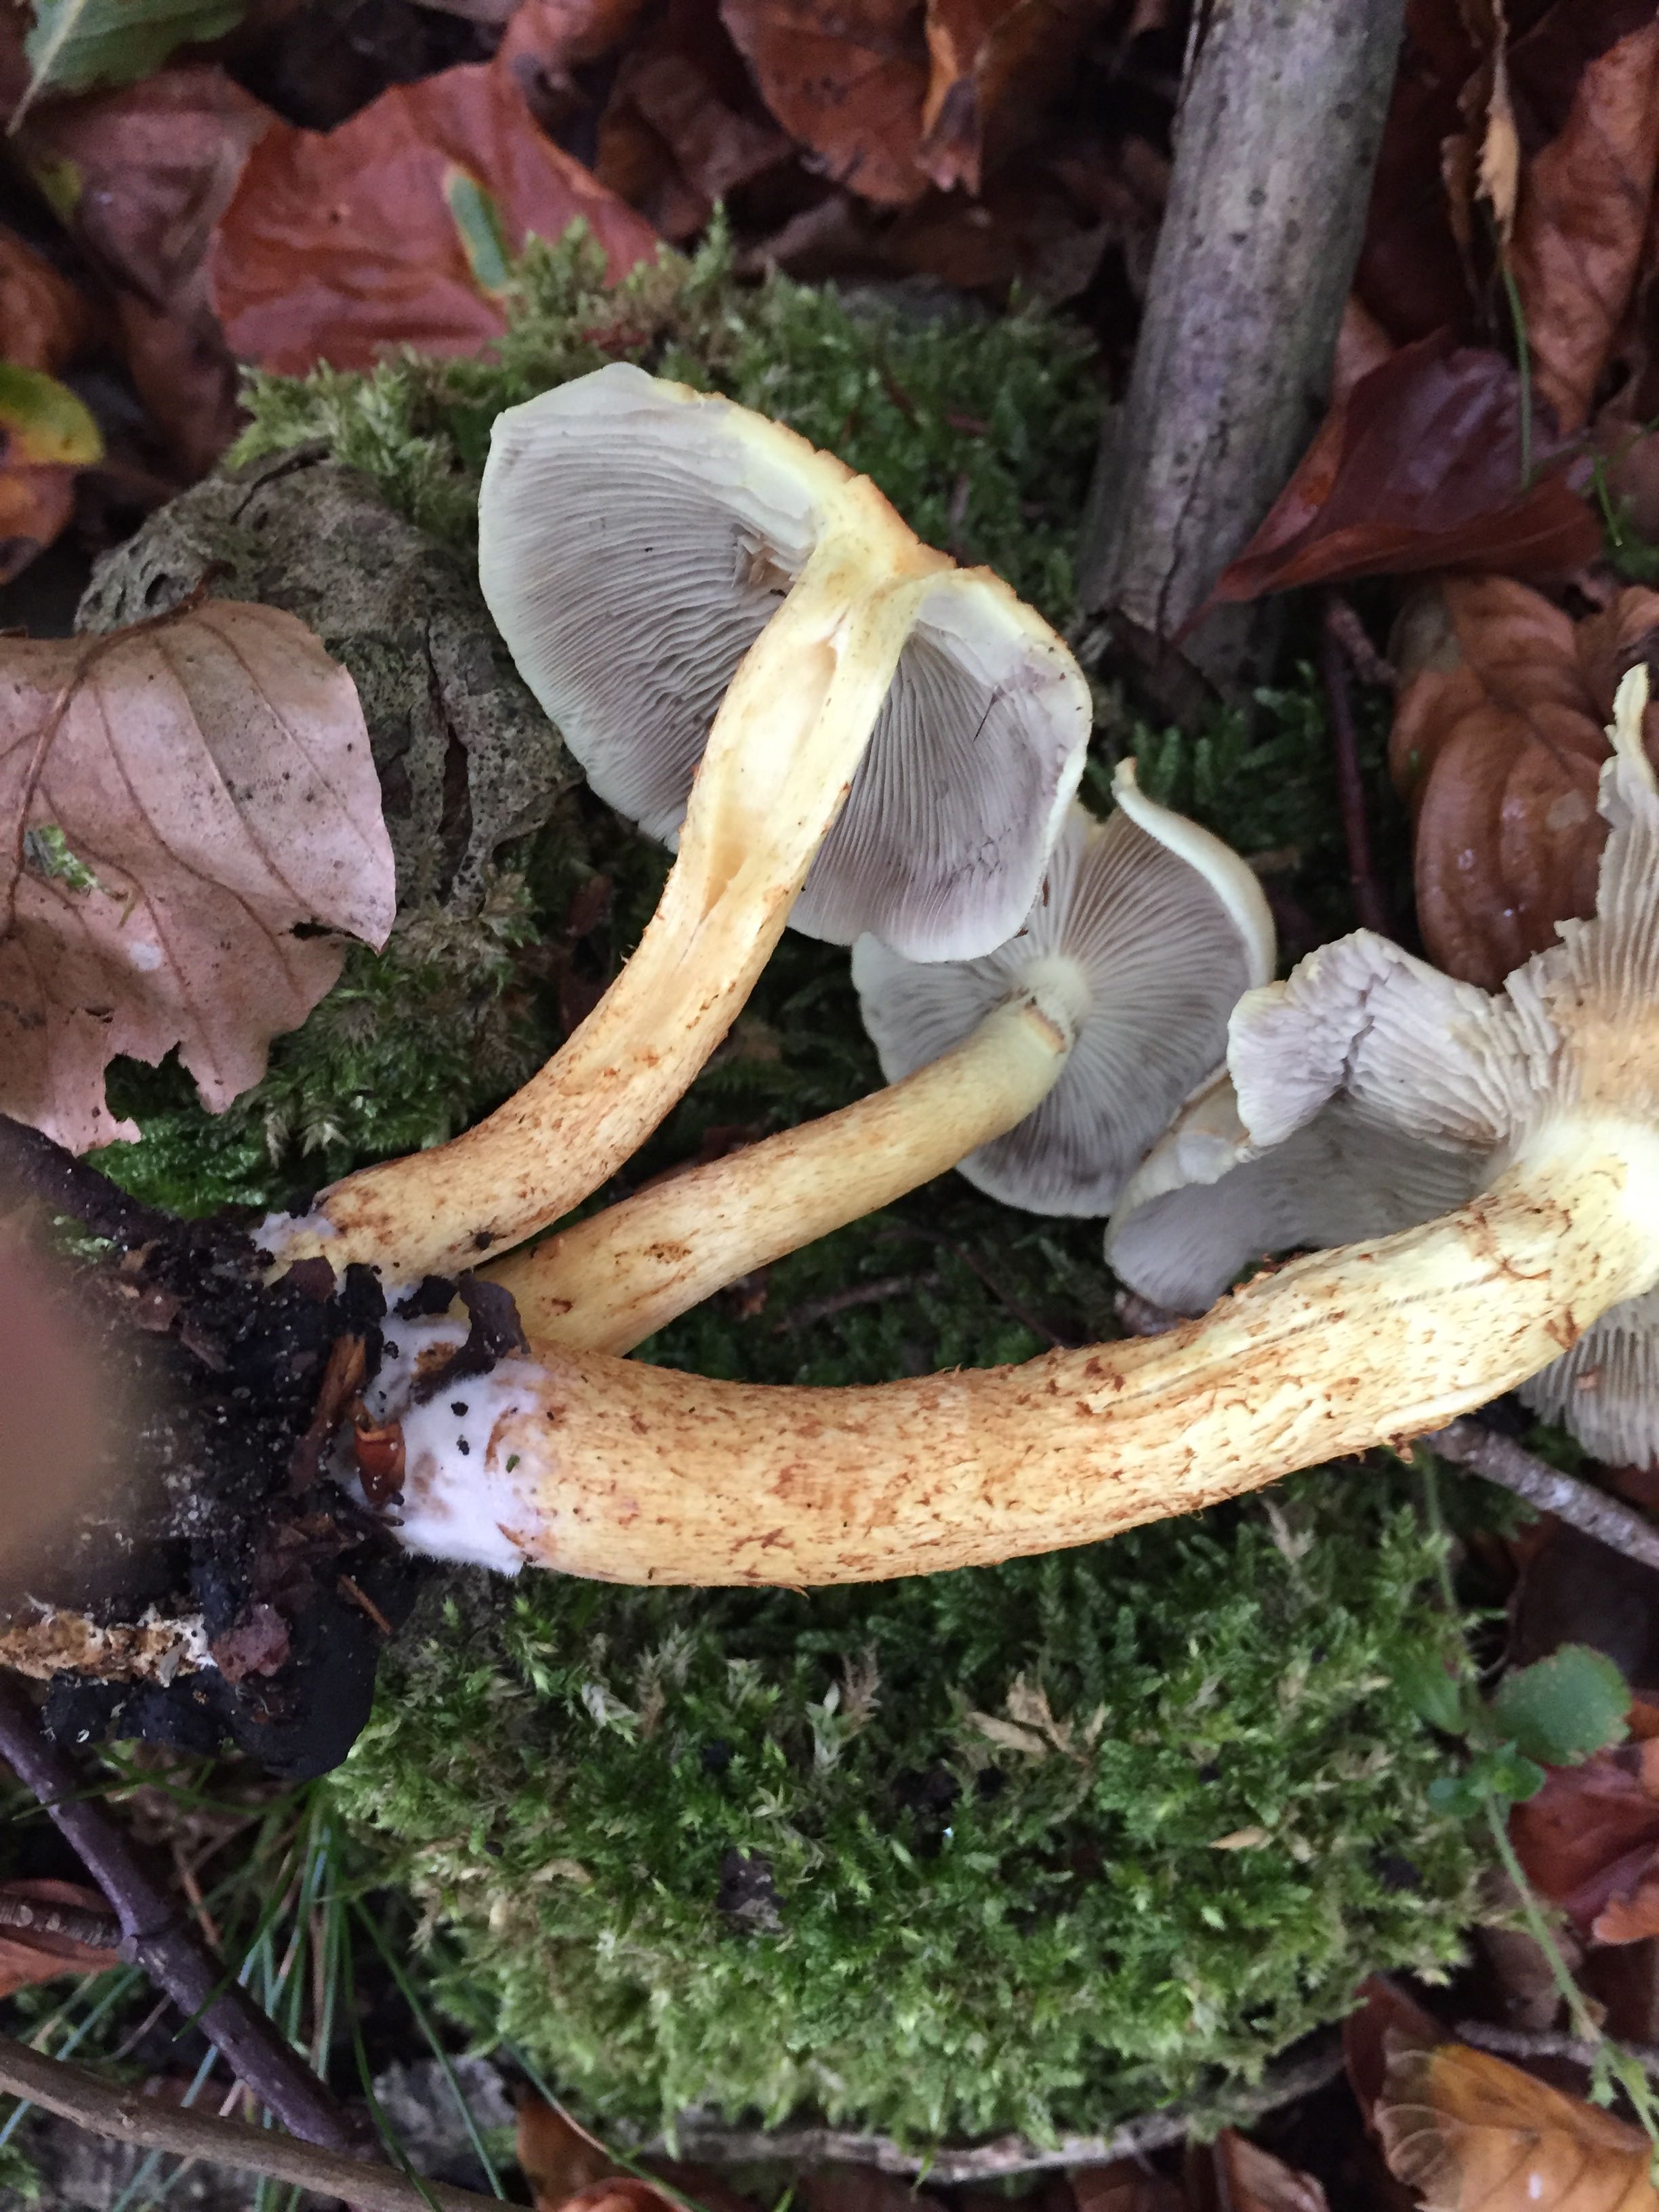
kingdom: Fungi
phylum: Basidiomycota
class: Agaricomycetes
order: Agaricales
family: Strophariaceae
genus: Hypholoma
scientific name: Hypholoma fasciculare
